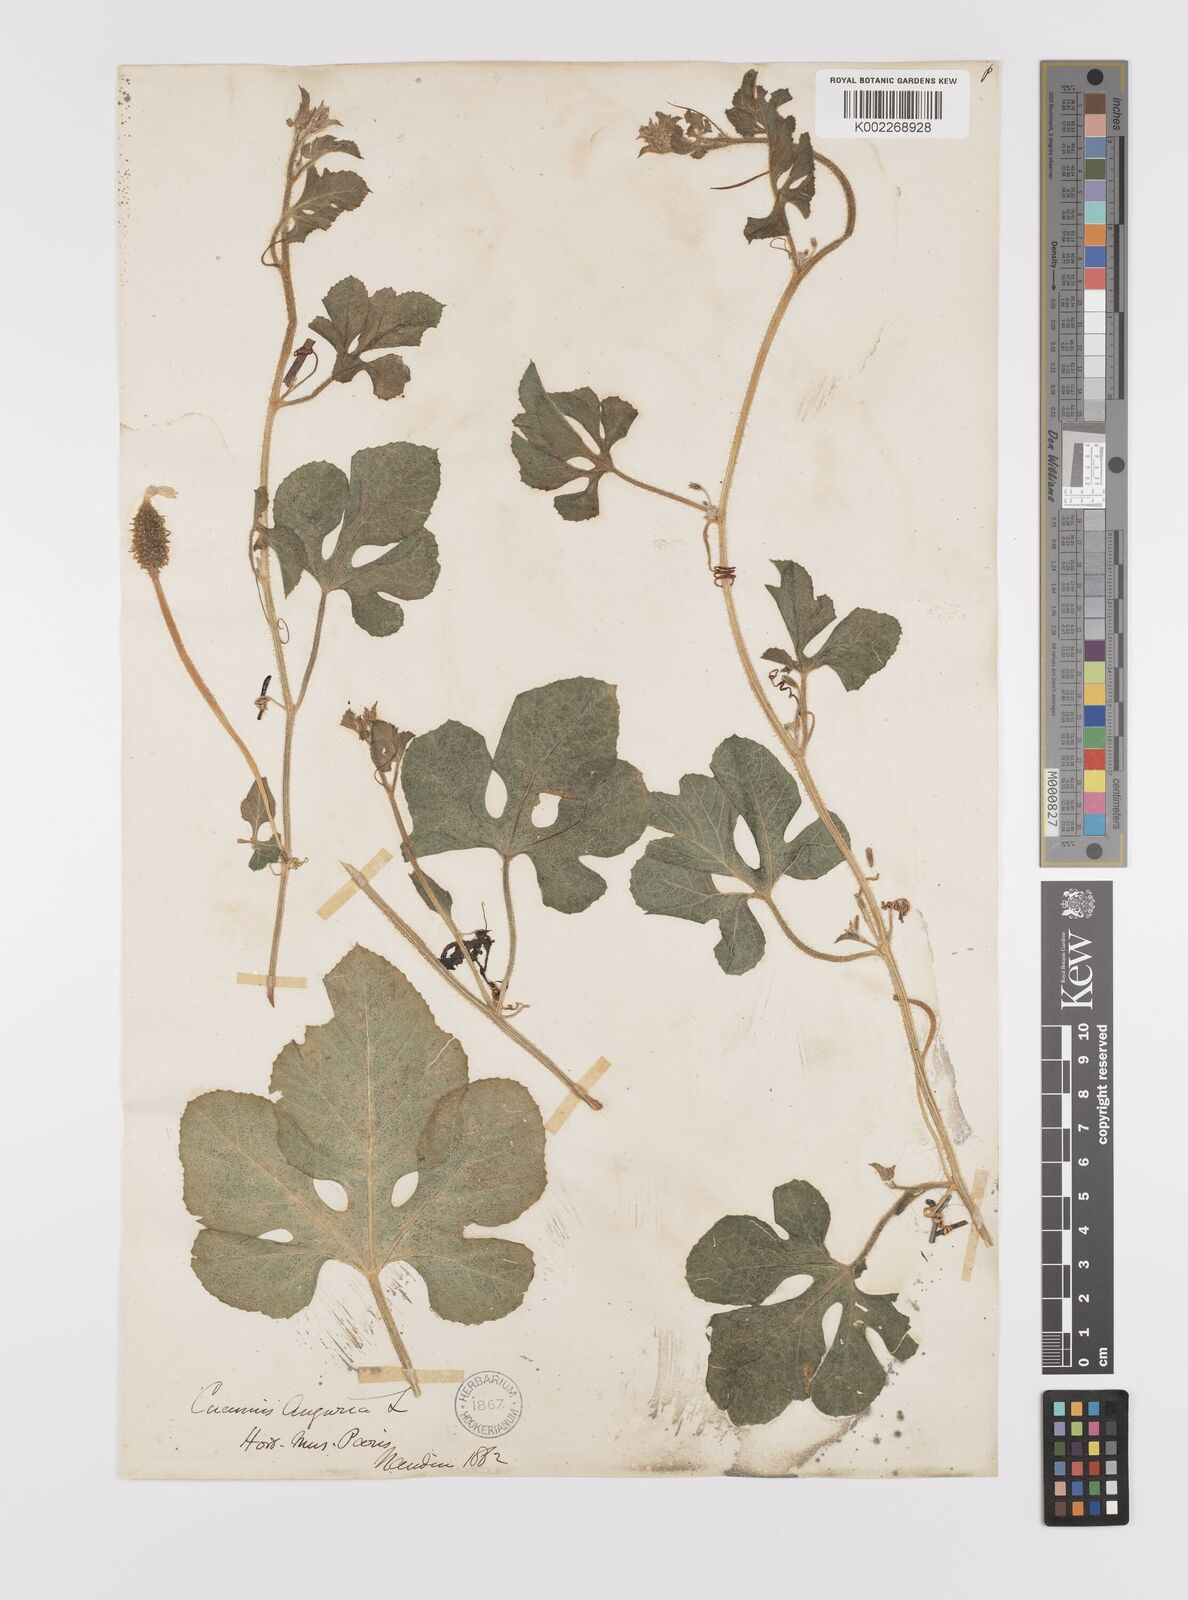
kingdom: Plantae
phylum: Tracheophyta
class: Magnoliopsida
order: Cucurbitales
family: Cucurbitaceae
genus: Cucumis
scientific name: Cucumis anguria
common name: West indian gherkin
